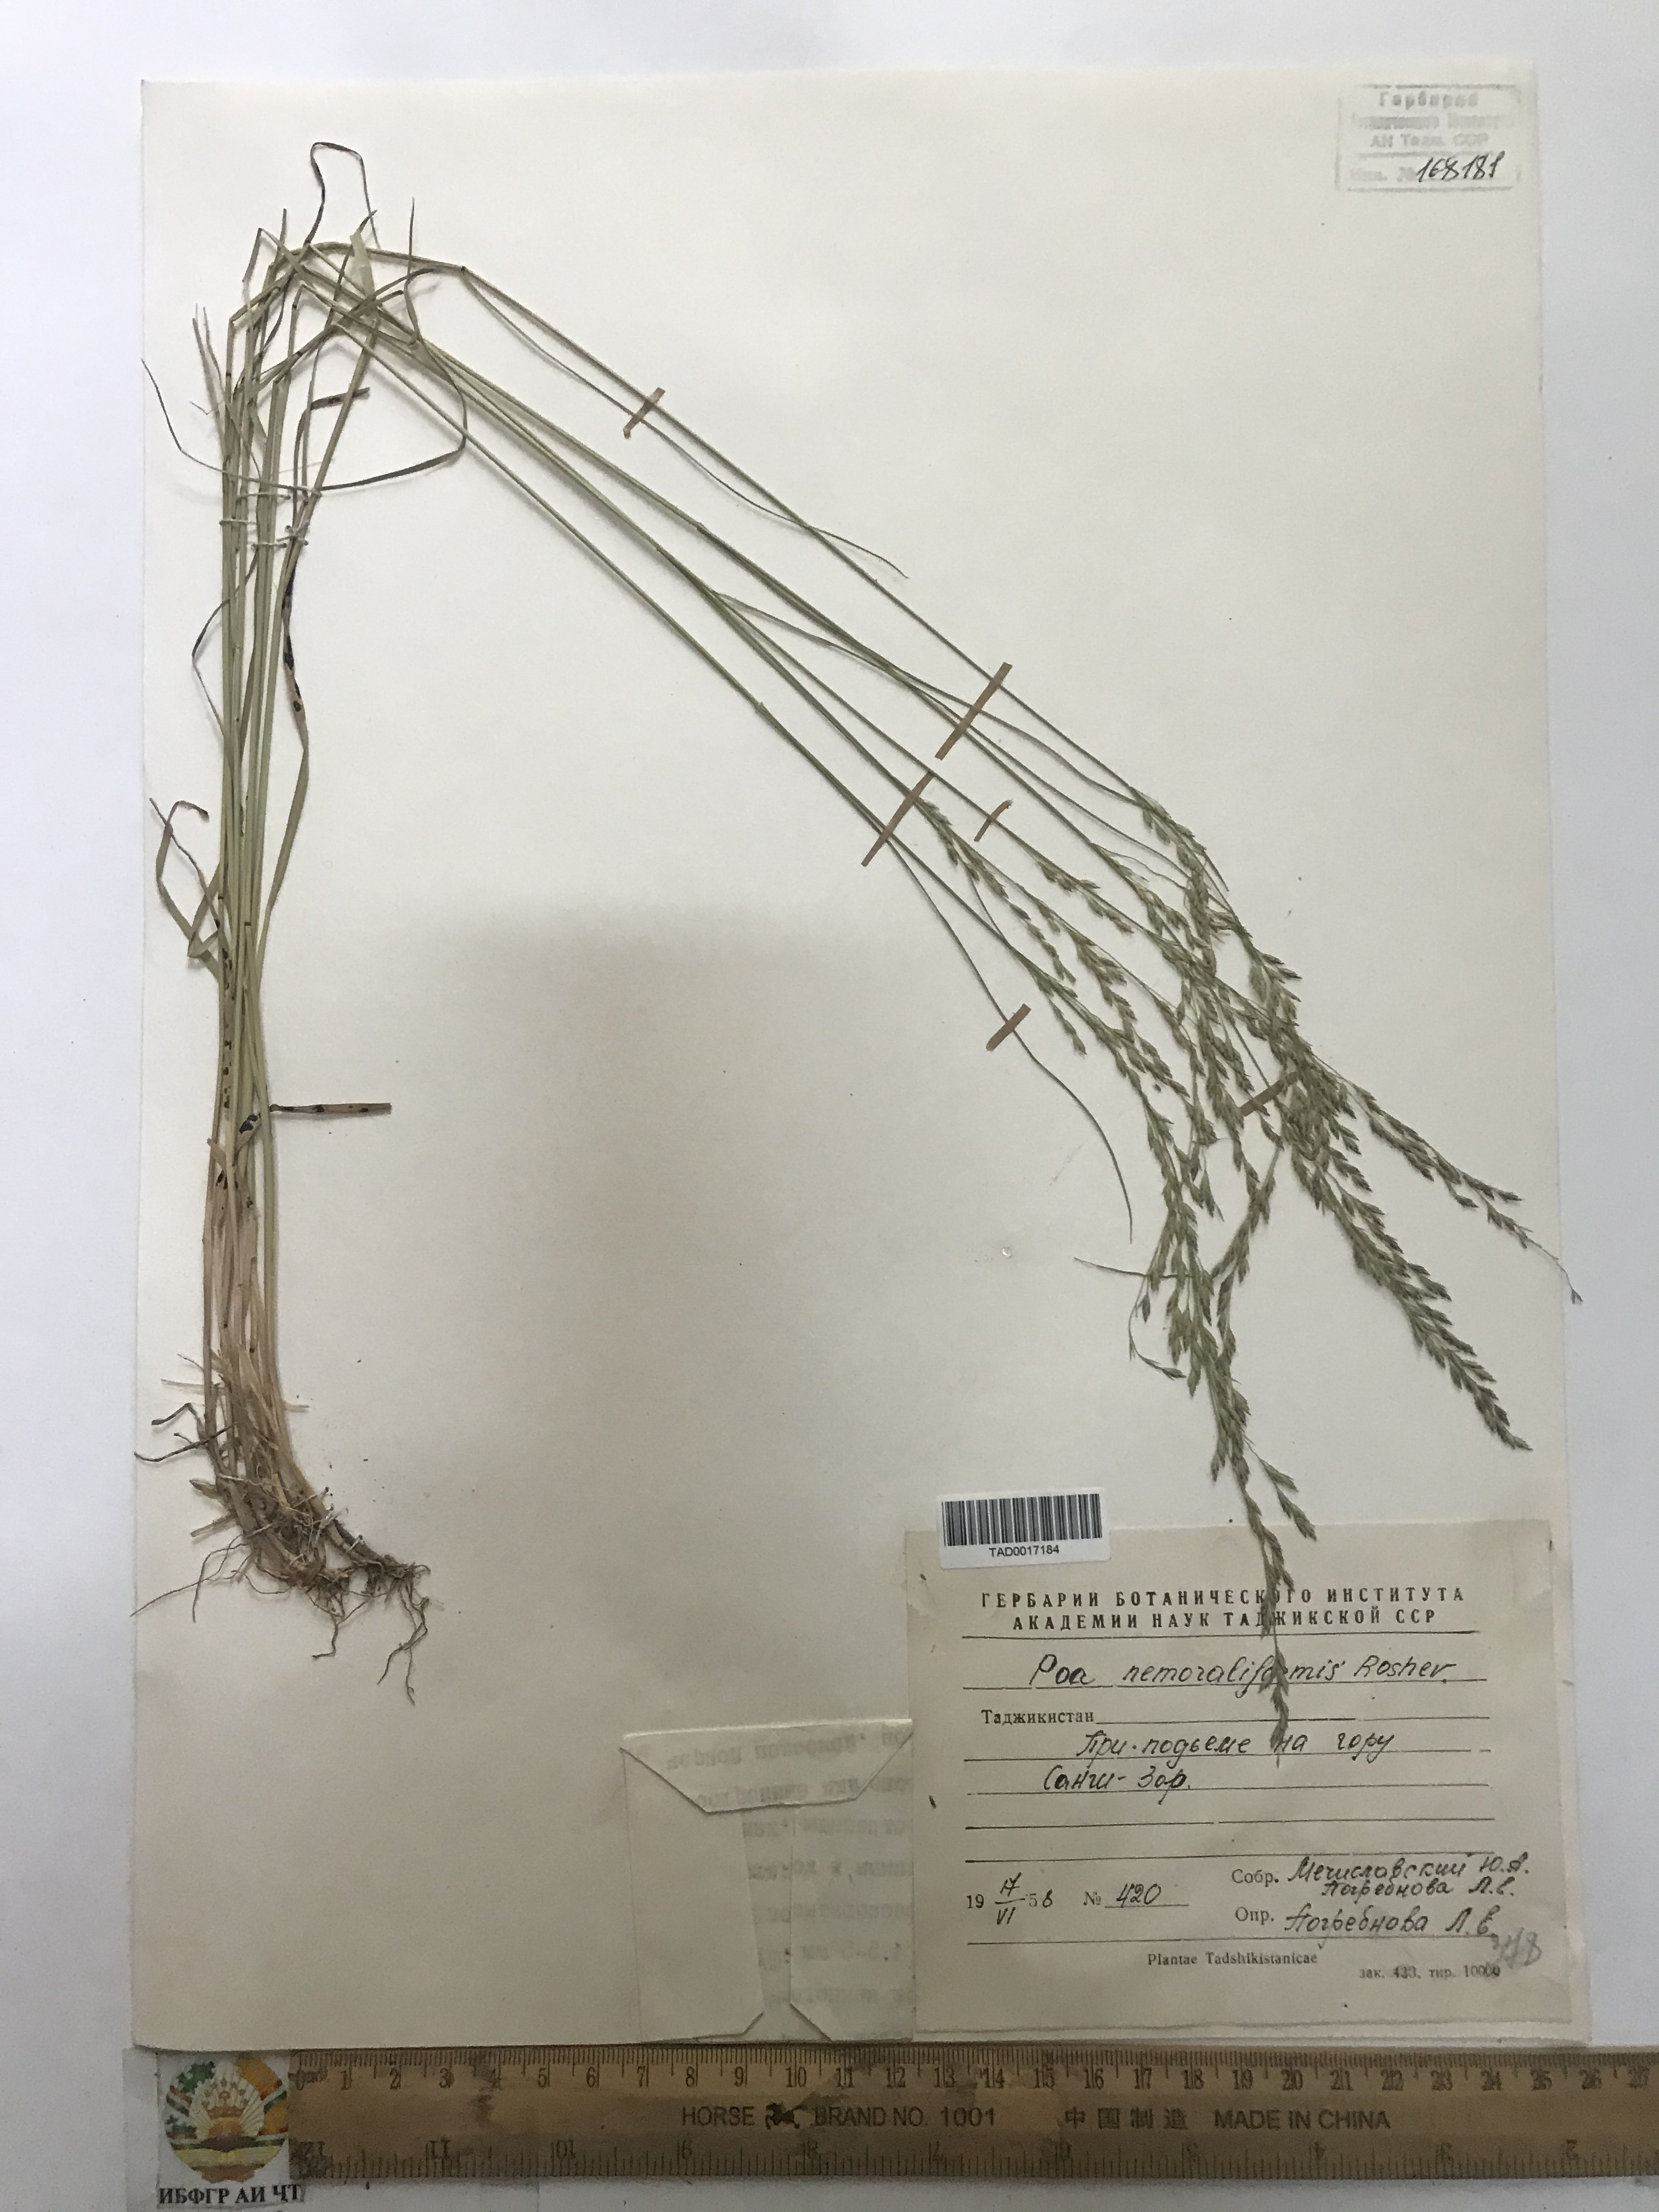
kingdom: Plantae
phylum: Tracheophyta
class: Liliopsida
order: Poales
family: Poaceae
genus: Poa
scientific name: Poa urssulensis
